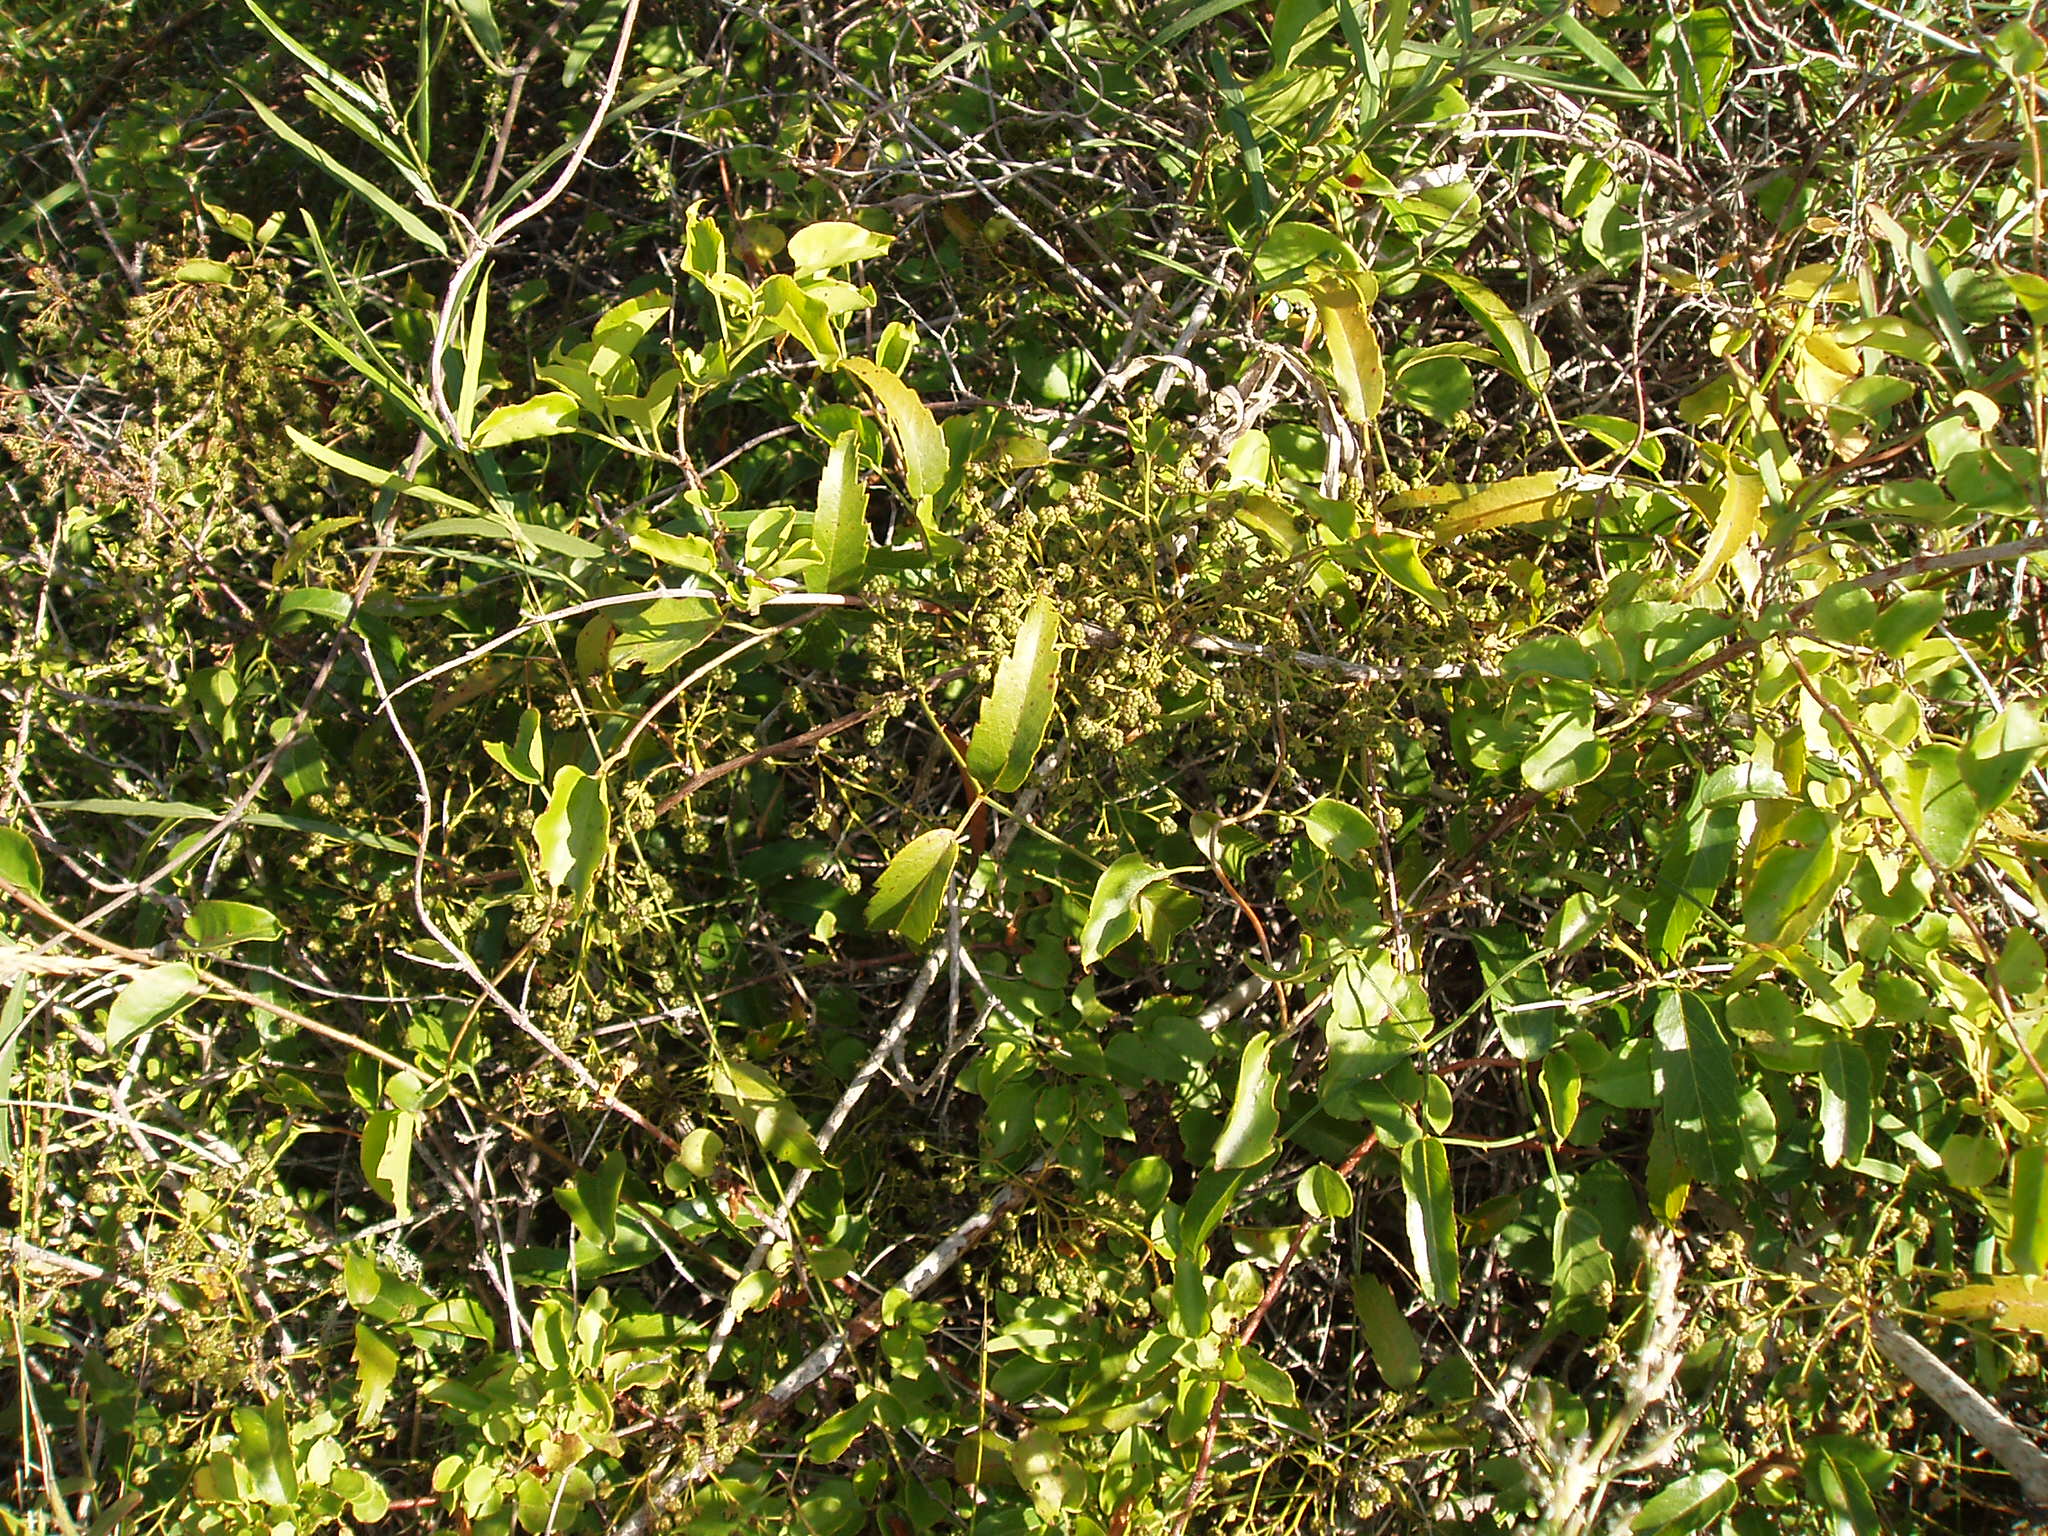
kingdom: Plantae
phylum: Tracheophyta
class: Magnoliopsida
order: Rosales
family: Rosaceae
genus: Rubus
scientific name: Rubus squarrosus
